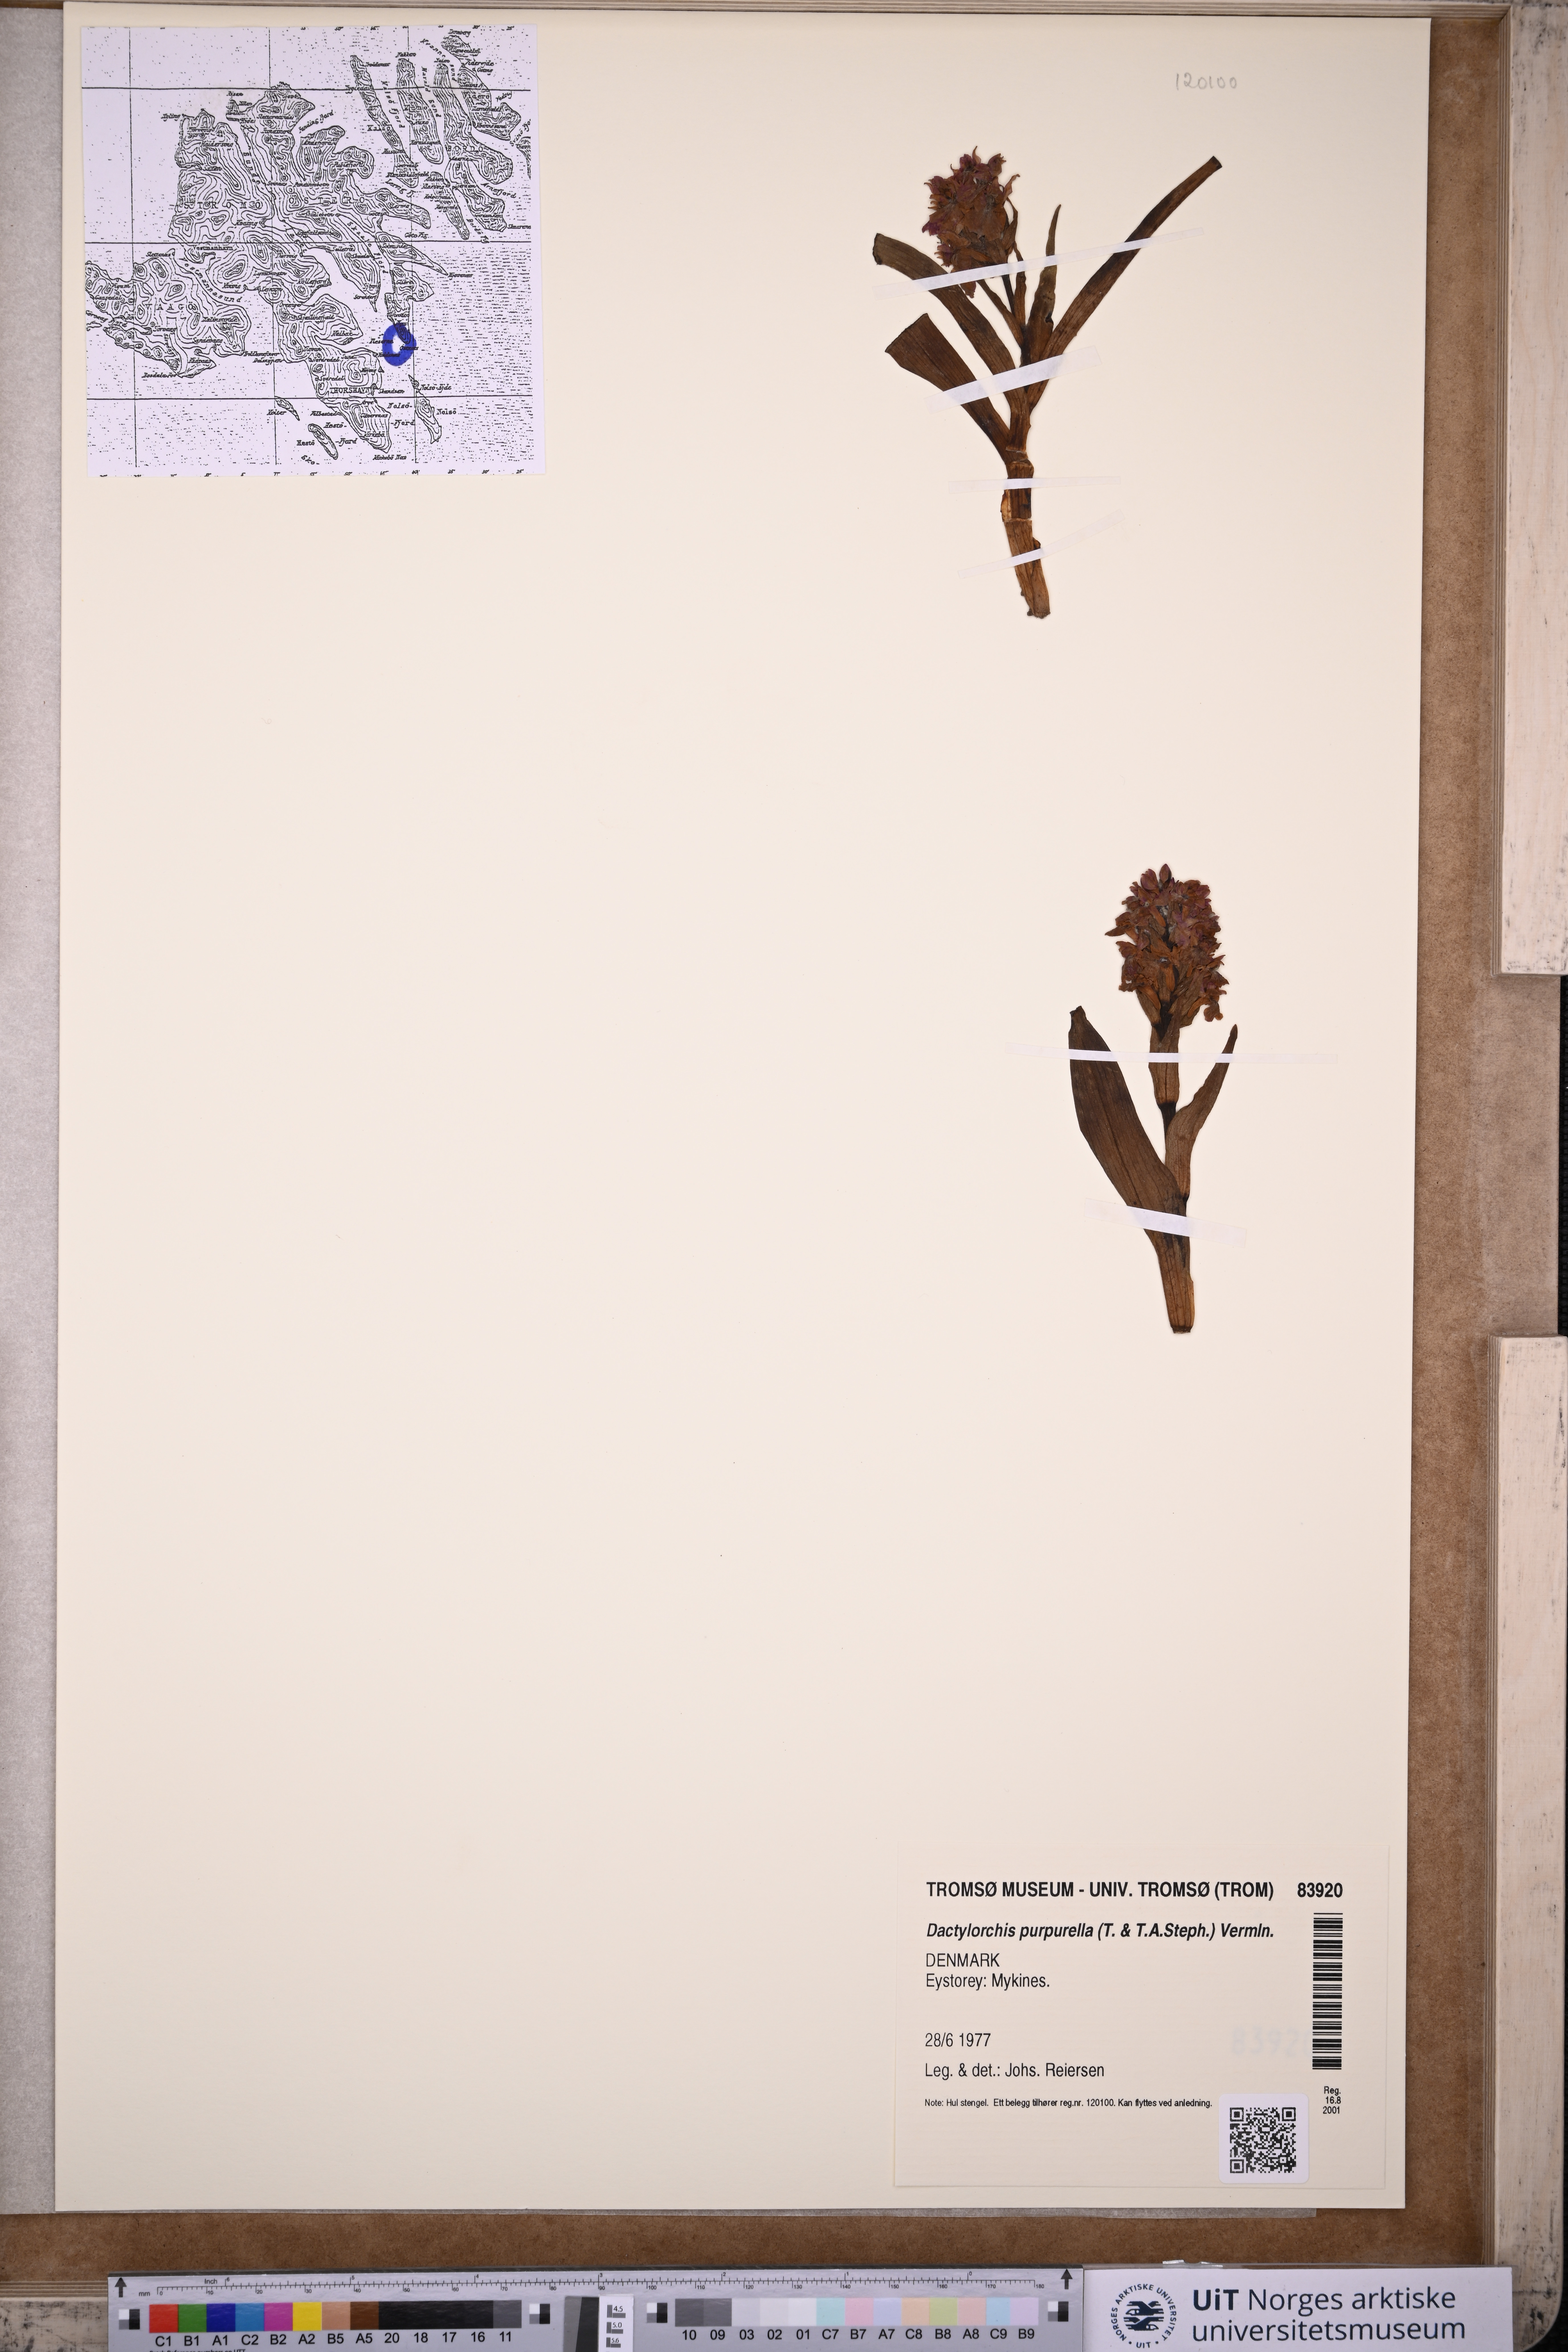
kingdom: Plantae
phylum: Tracheophyta
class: Liliopsida
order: Asparagales
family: Orchidaceae
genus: Dactylorhiza
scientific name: Dactylorhiza majalis
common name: Marsh orchid
